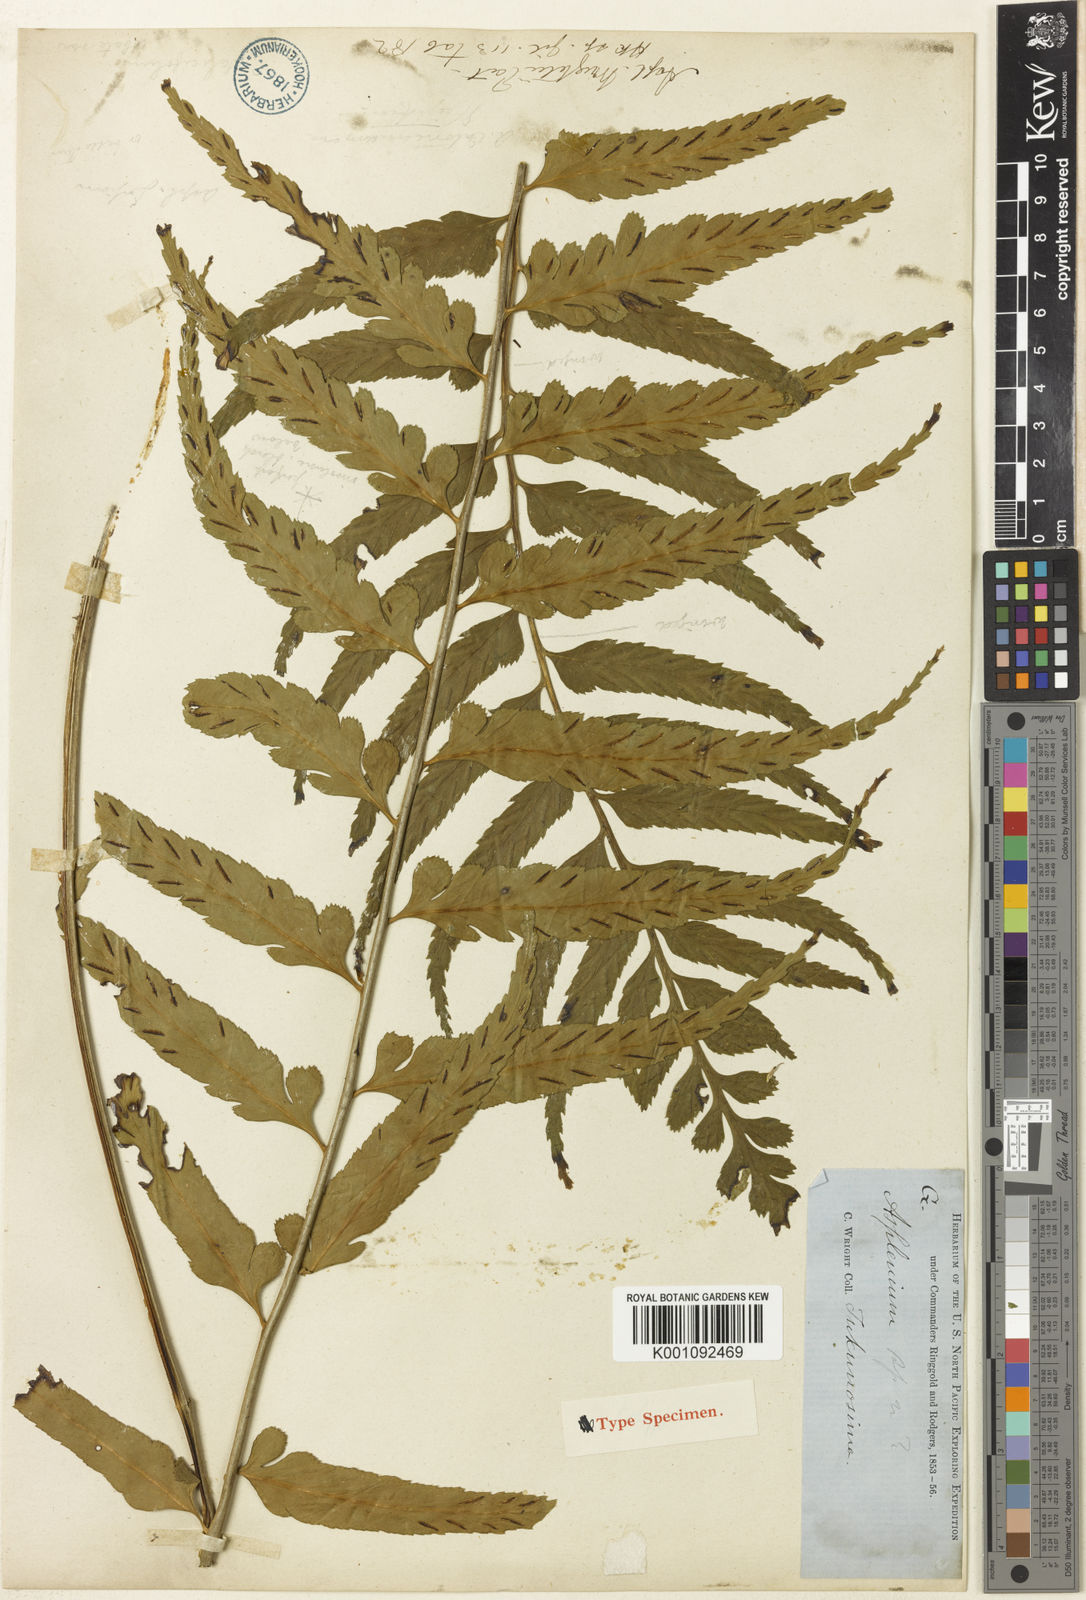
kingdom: Plantae
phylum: Tracheophyta
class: Polypodiopsida
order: Polypodiales
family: Aspleniaceae
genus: Asplenium
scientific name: Asplenium wrightii
